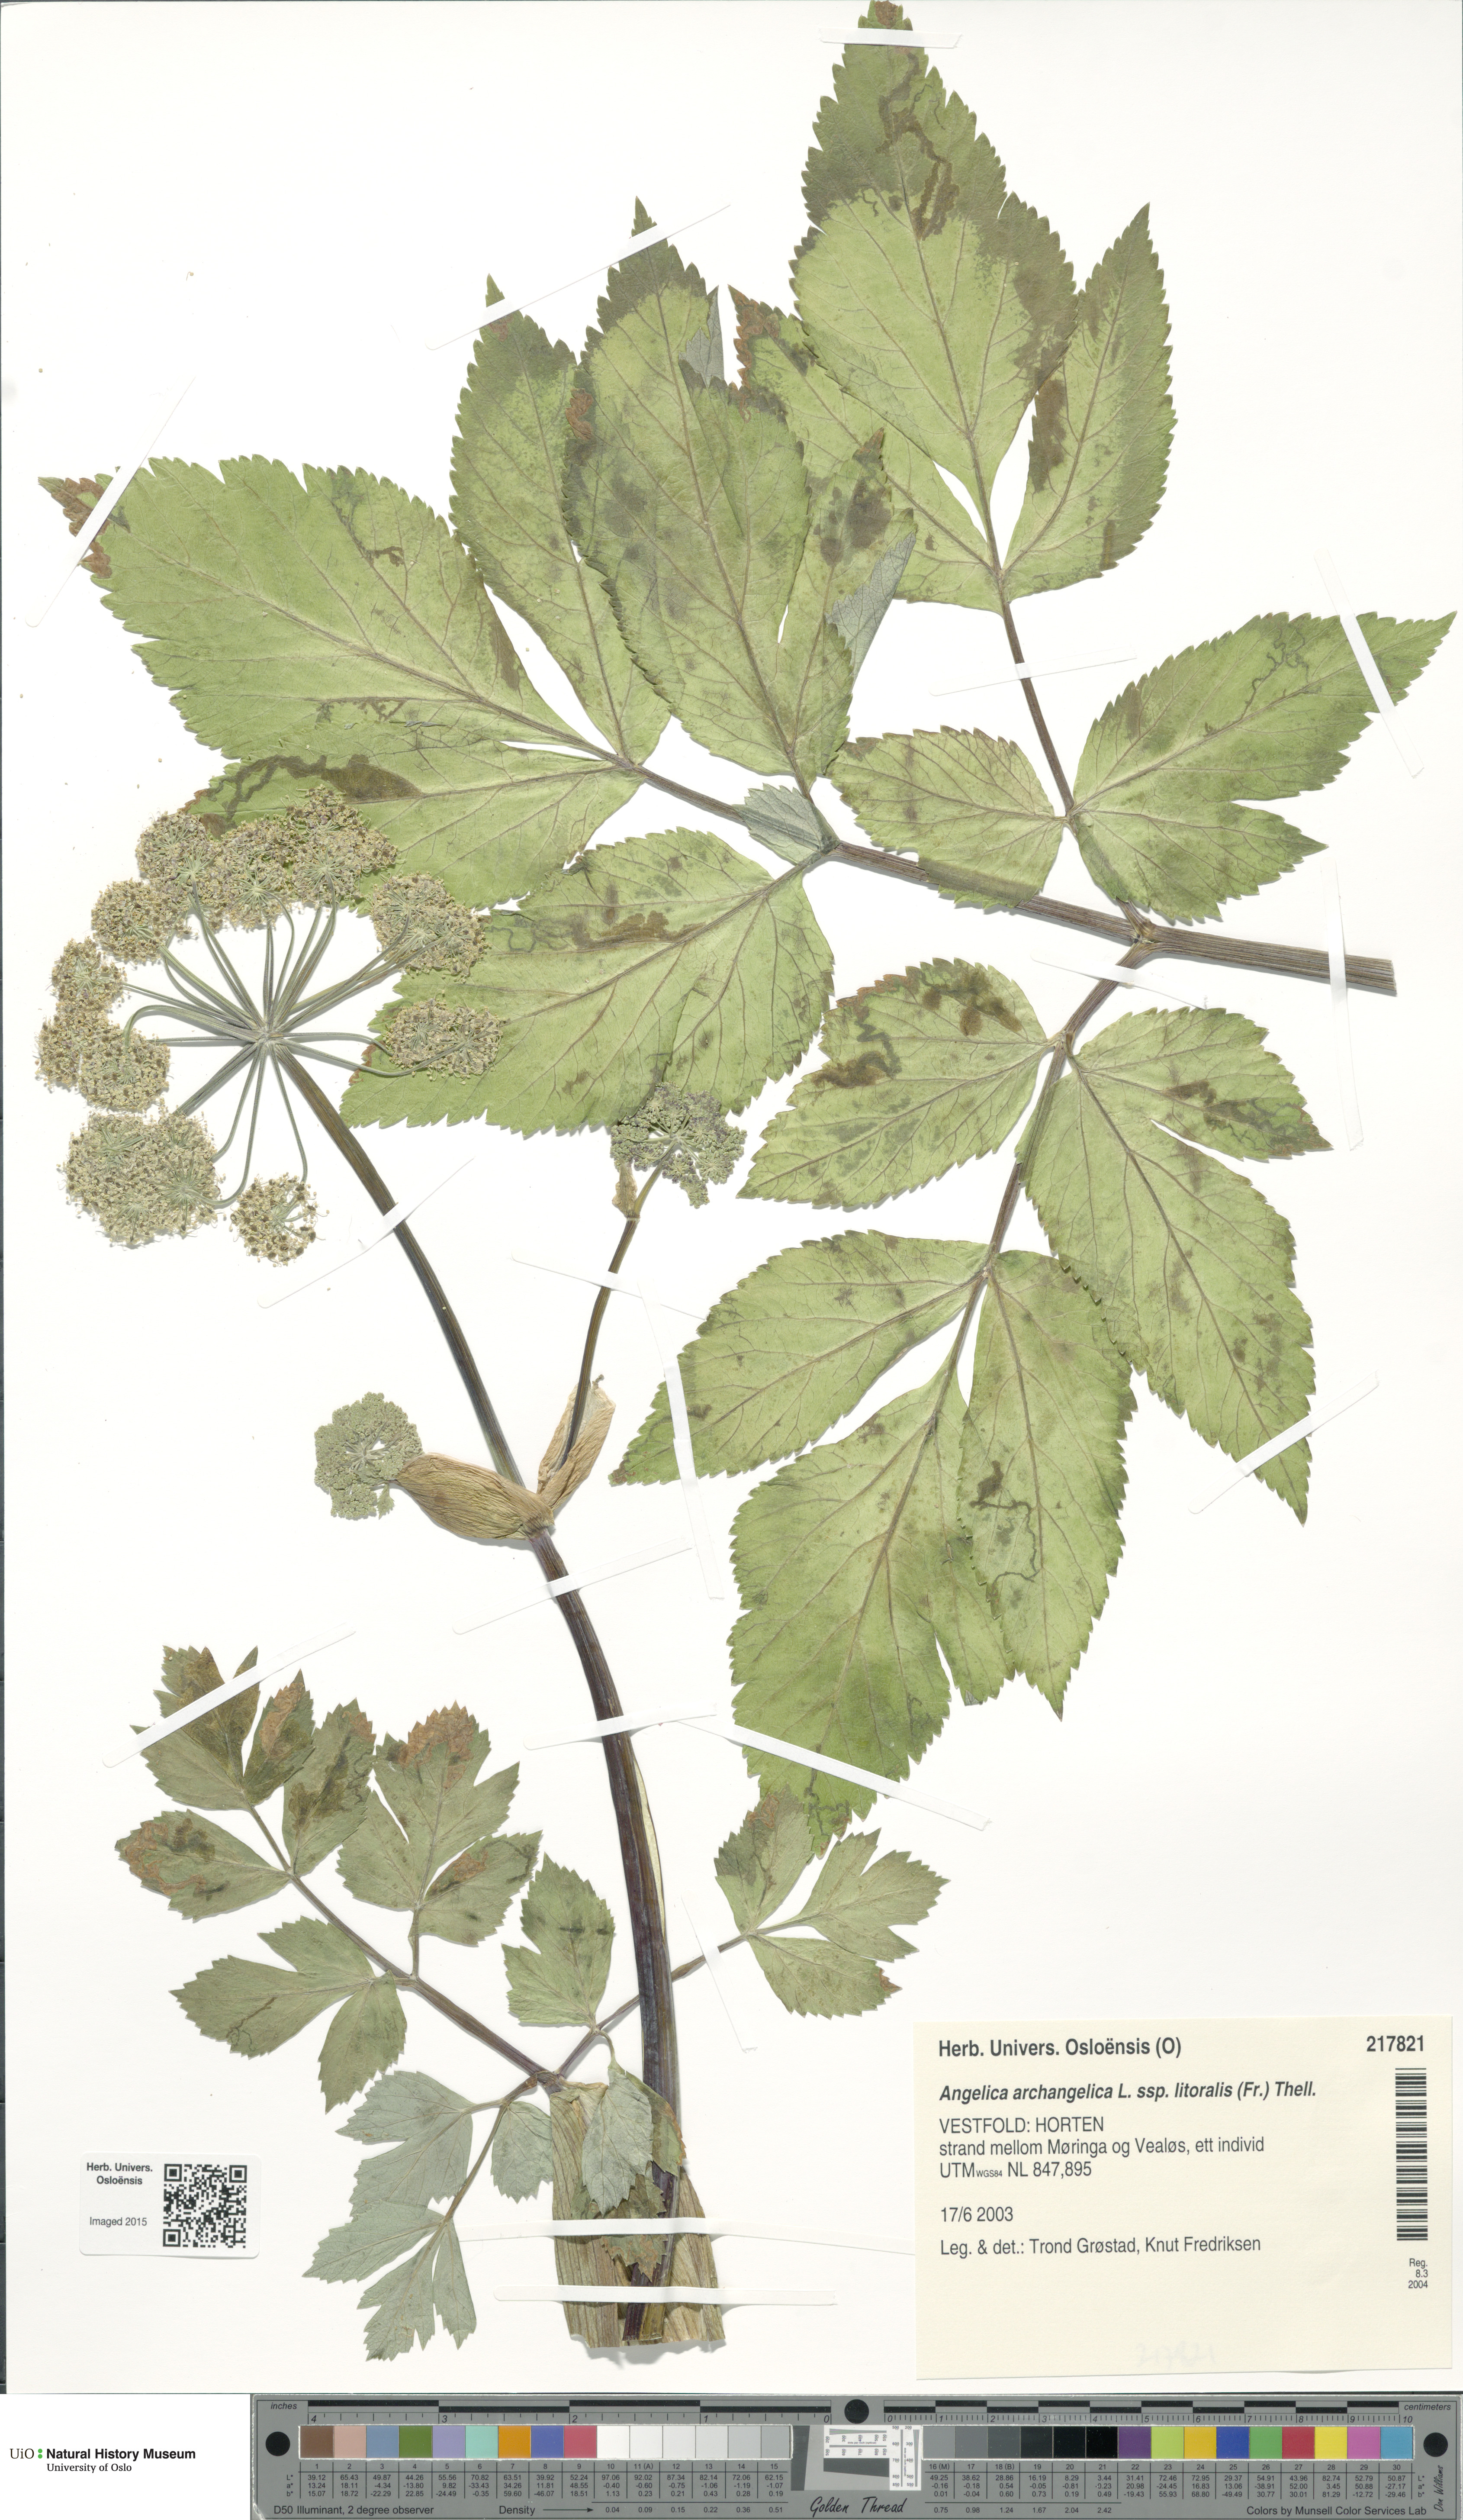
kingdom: Plantae
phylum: Tracheophyta
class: Magnoliopsida
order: Apiales
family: Apiaceae
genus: Angelica
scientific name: Angelica archangelica
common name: Garden angelica
